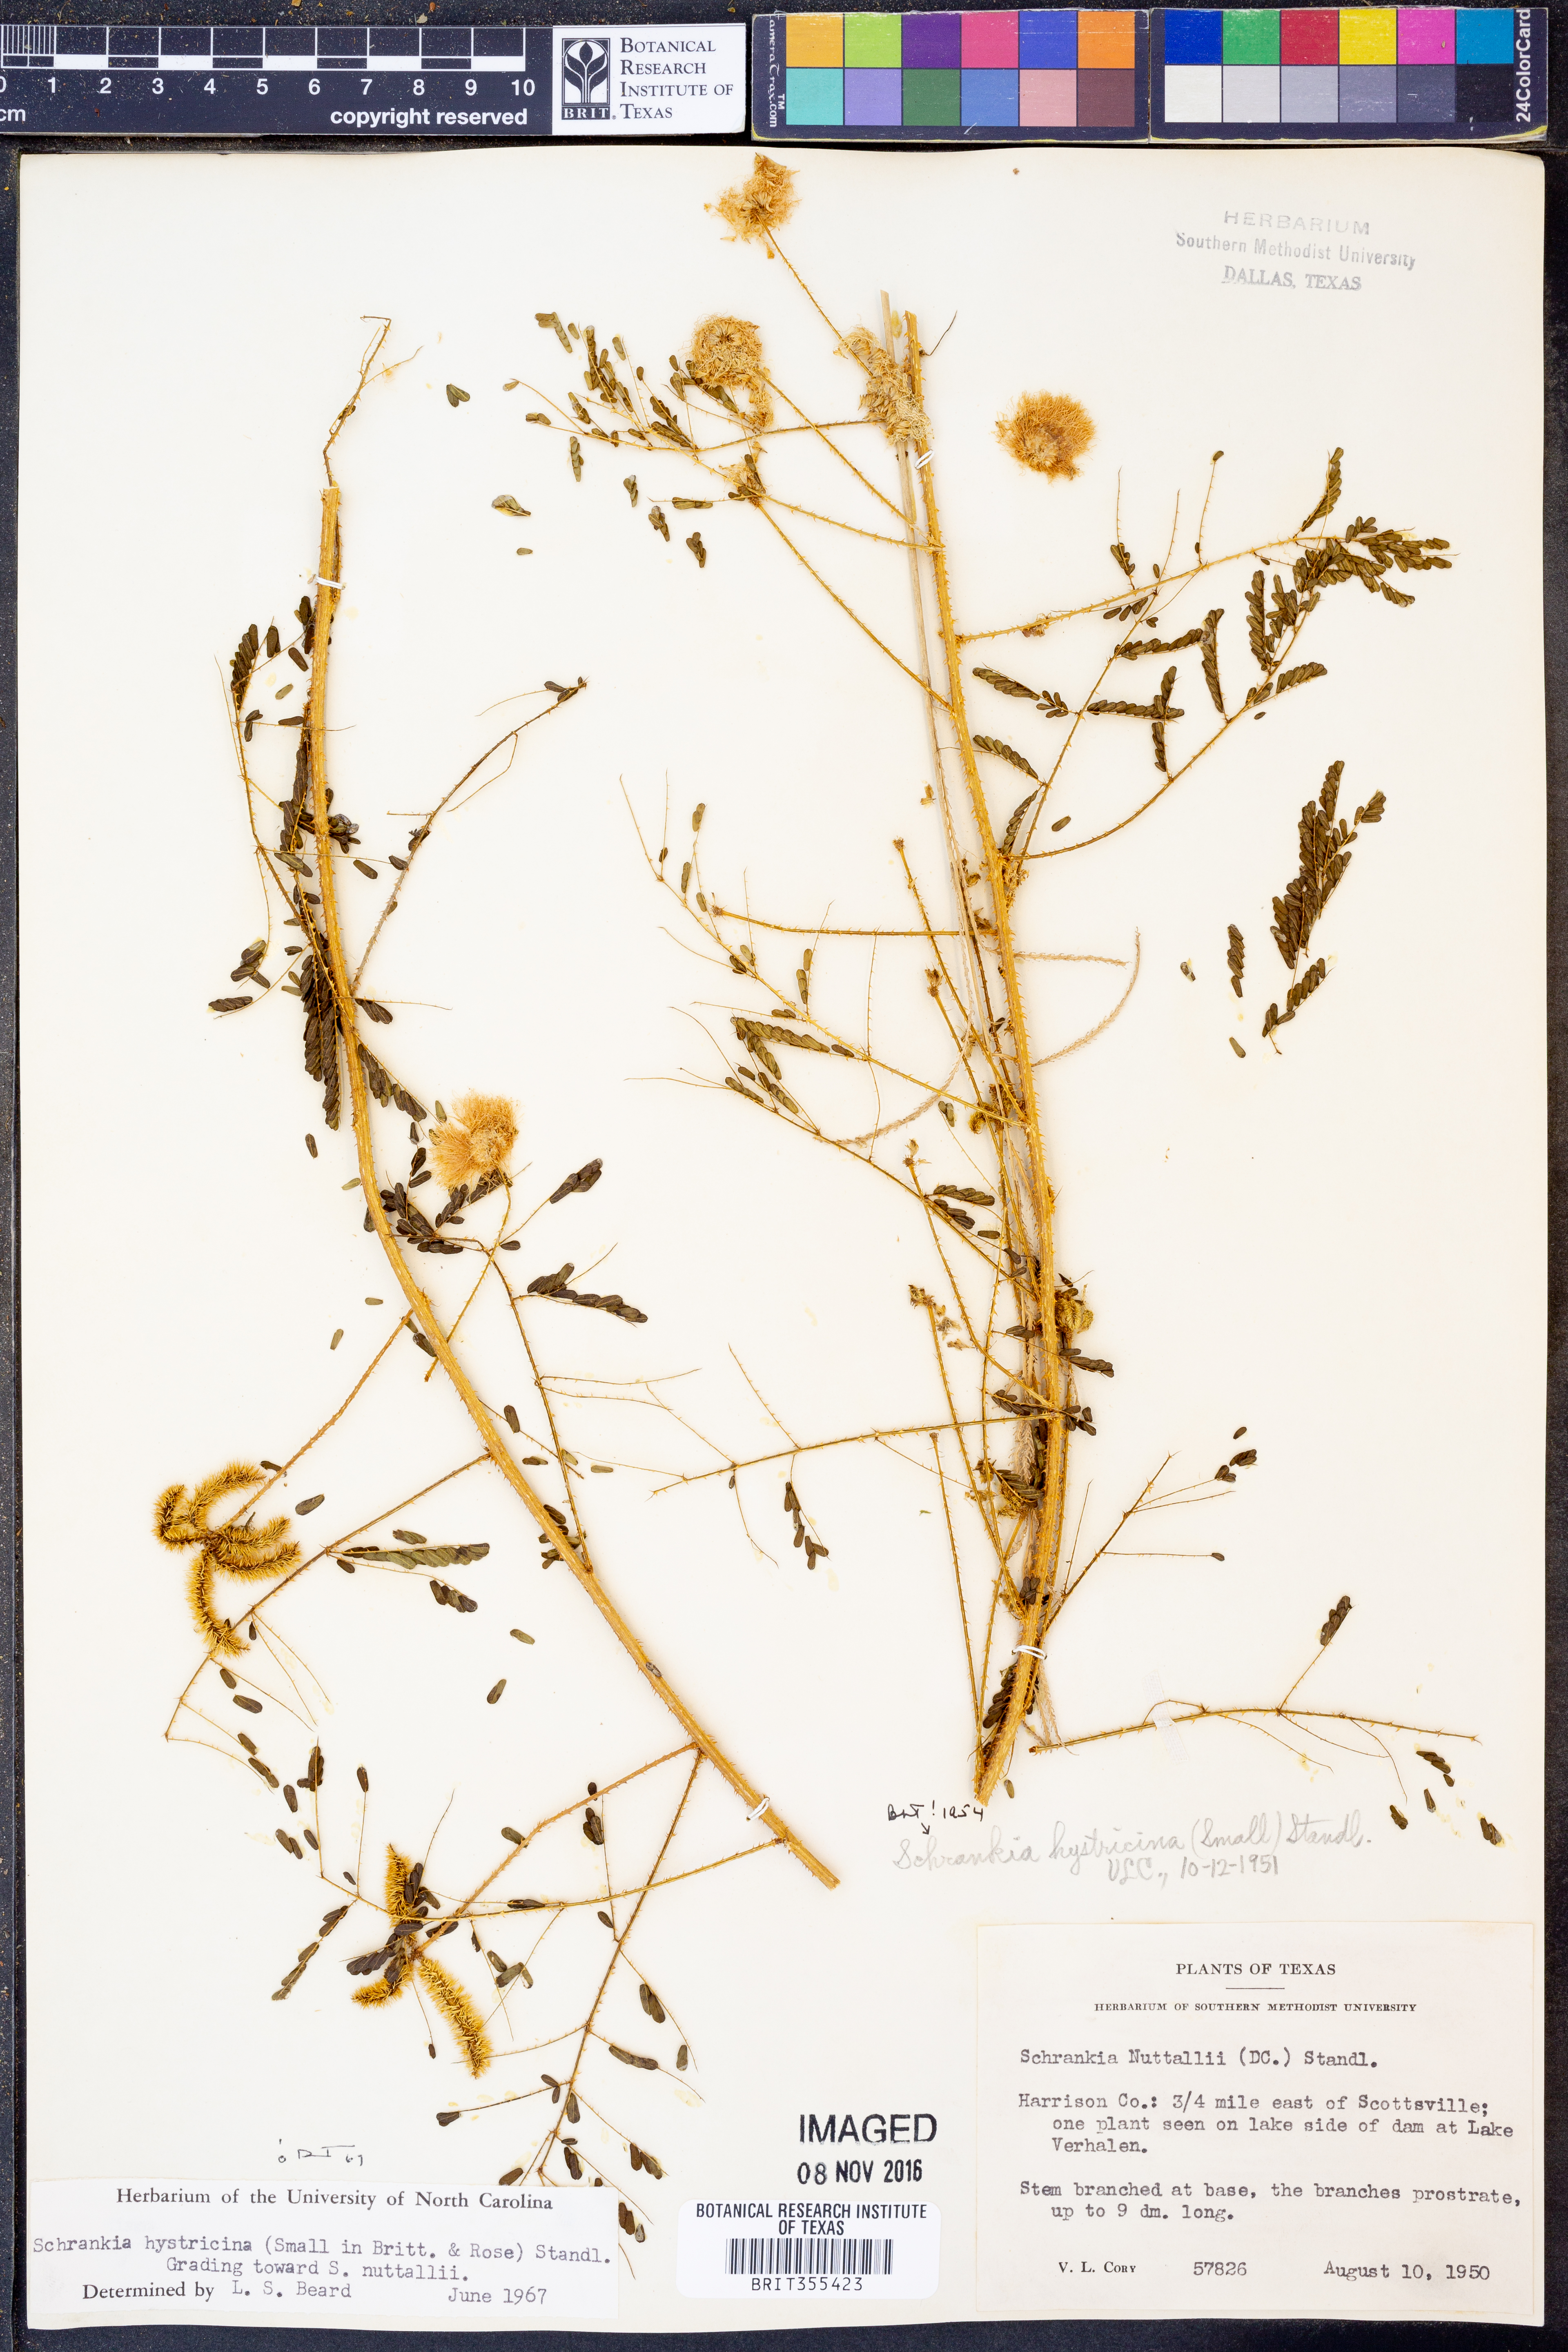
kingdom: Plantae
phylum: Tracheophyta
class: Magnoliopsida
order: Fabales
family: Fabaceae
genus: Mimosa
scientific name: Mimosa hystricina
